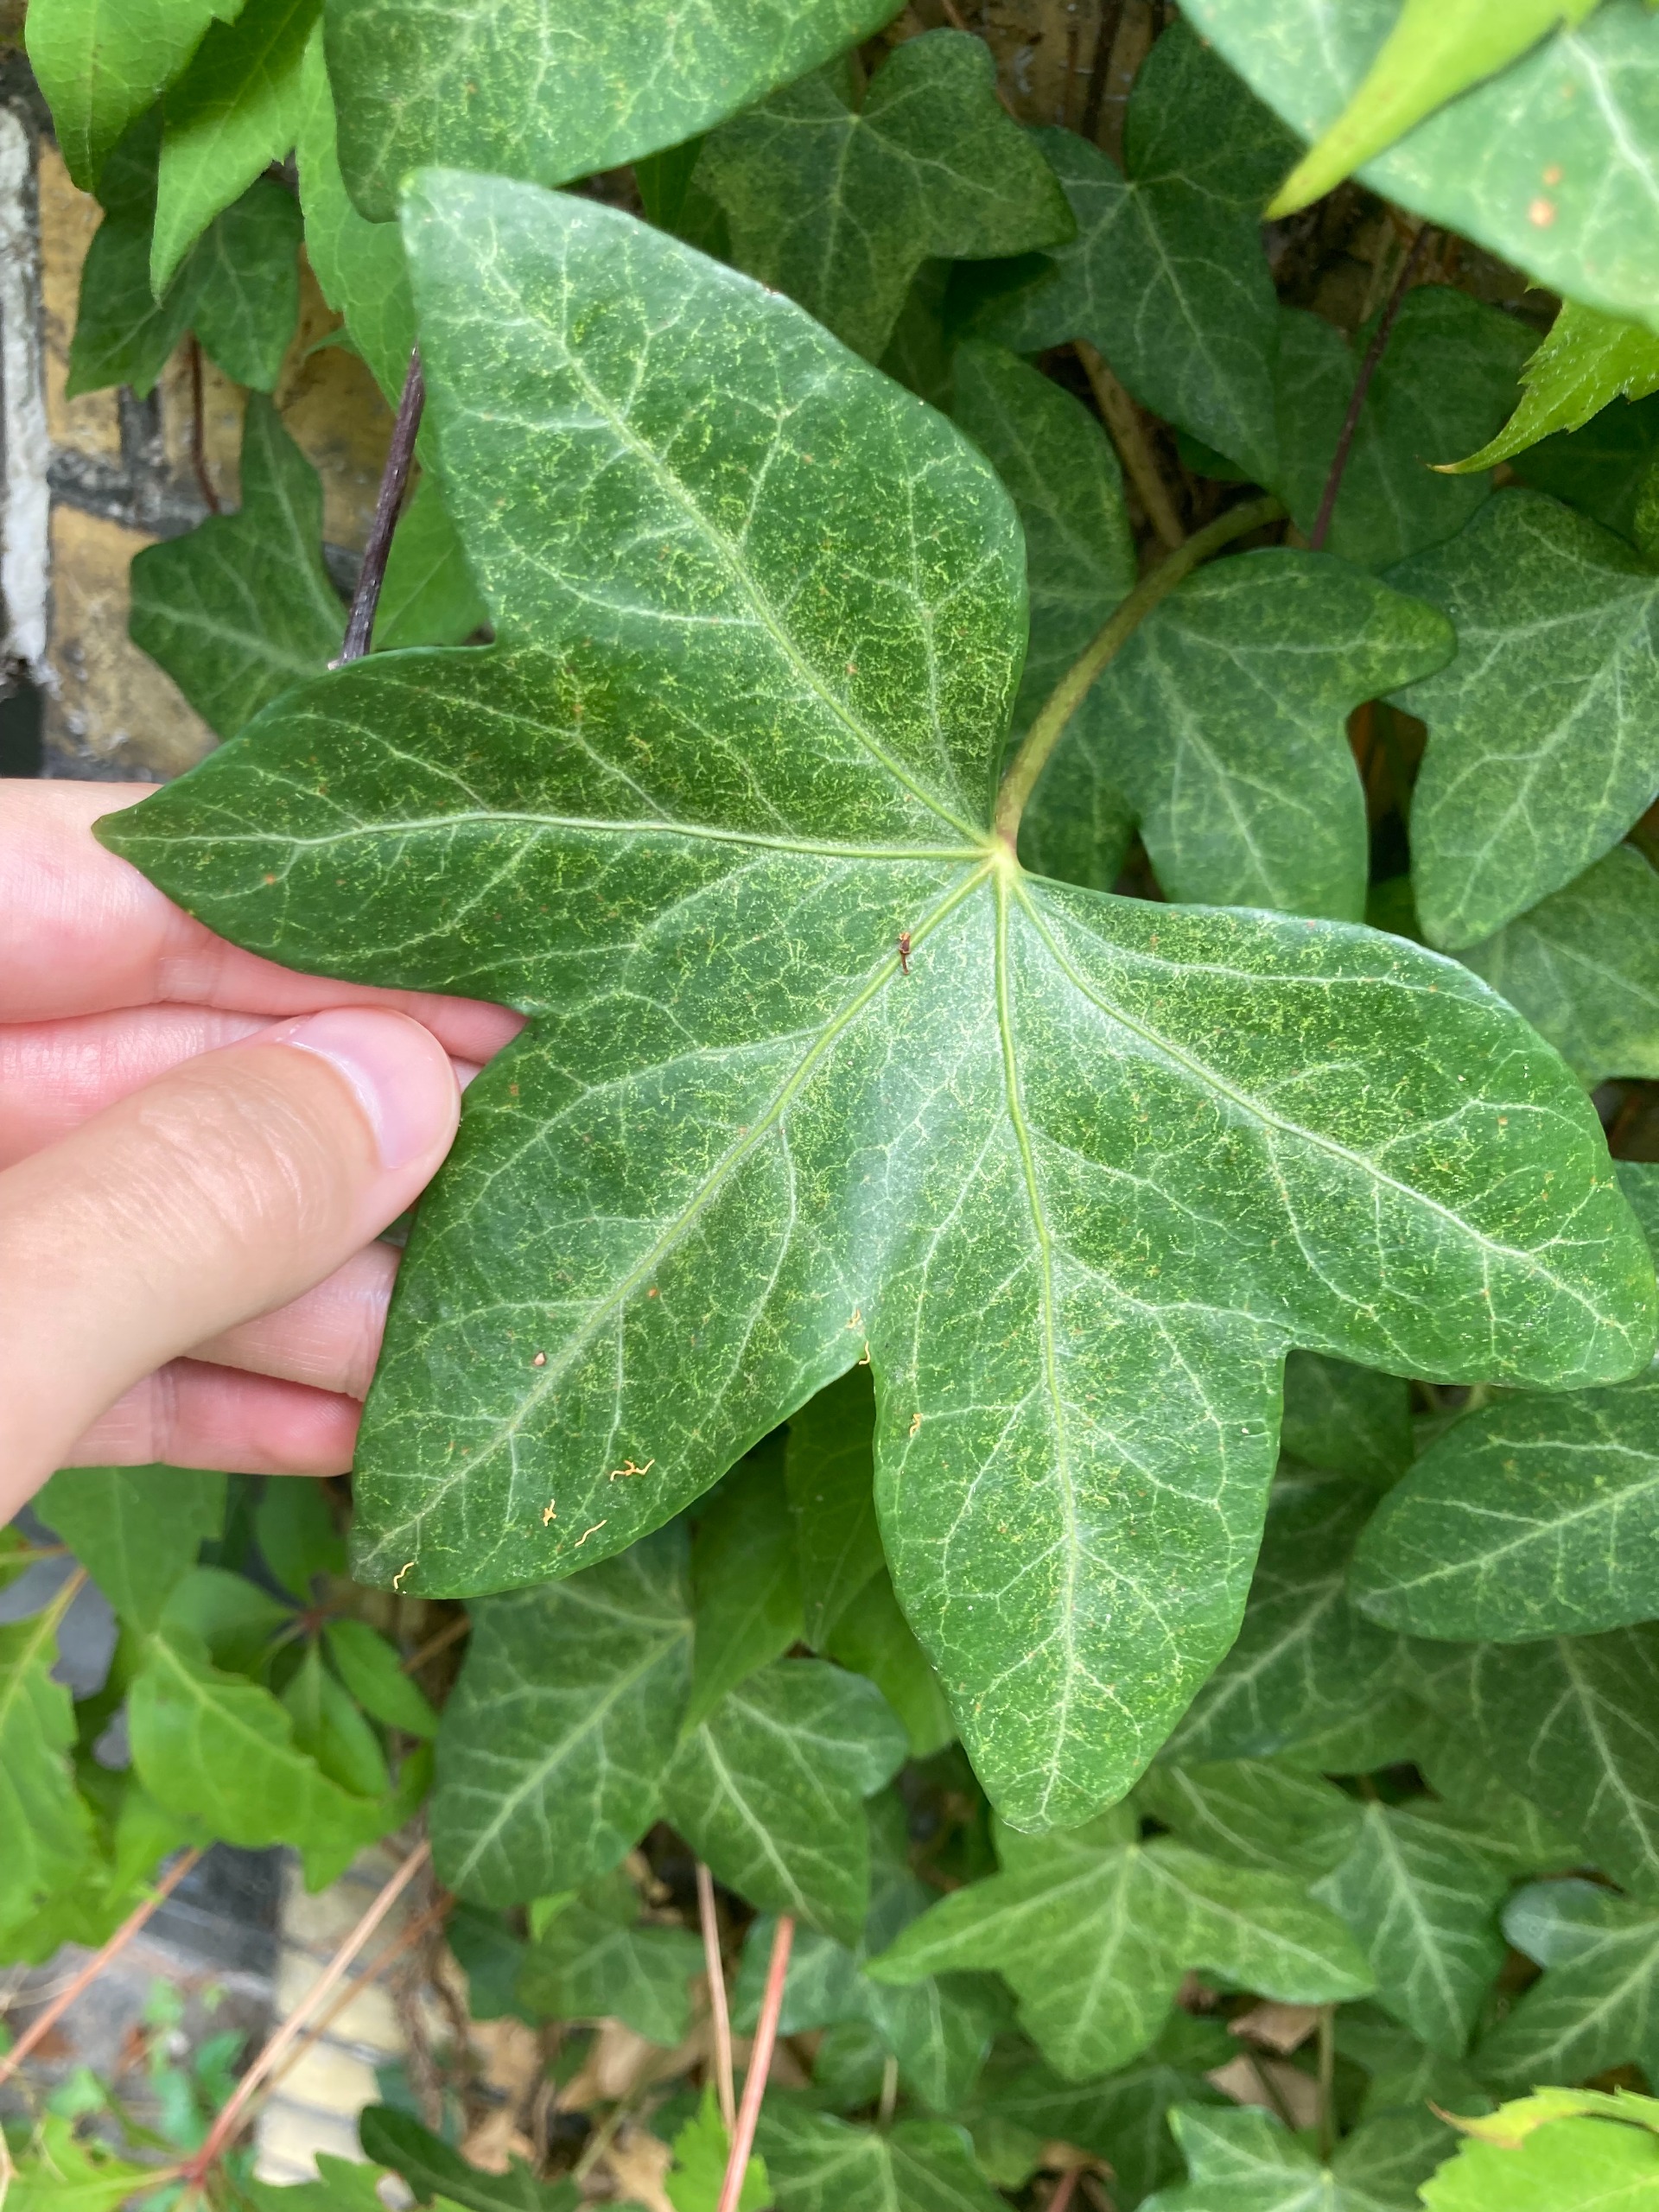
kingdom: Plantae
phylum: Tracheophyta
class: Magnoliopsida
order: Apiales
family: Araliaceae
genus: Hedera
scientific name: Hedera hibernica
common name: Irsk vedbend
